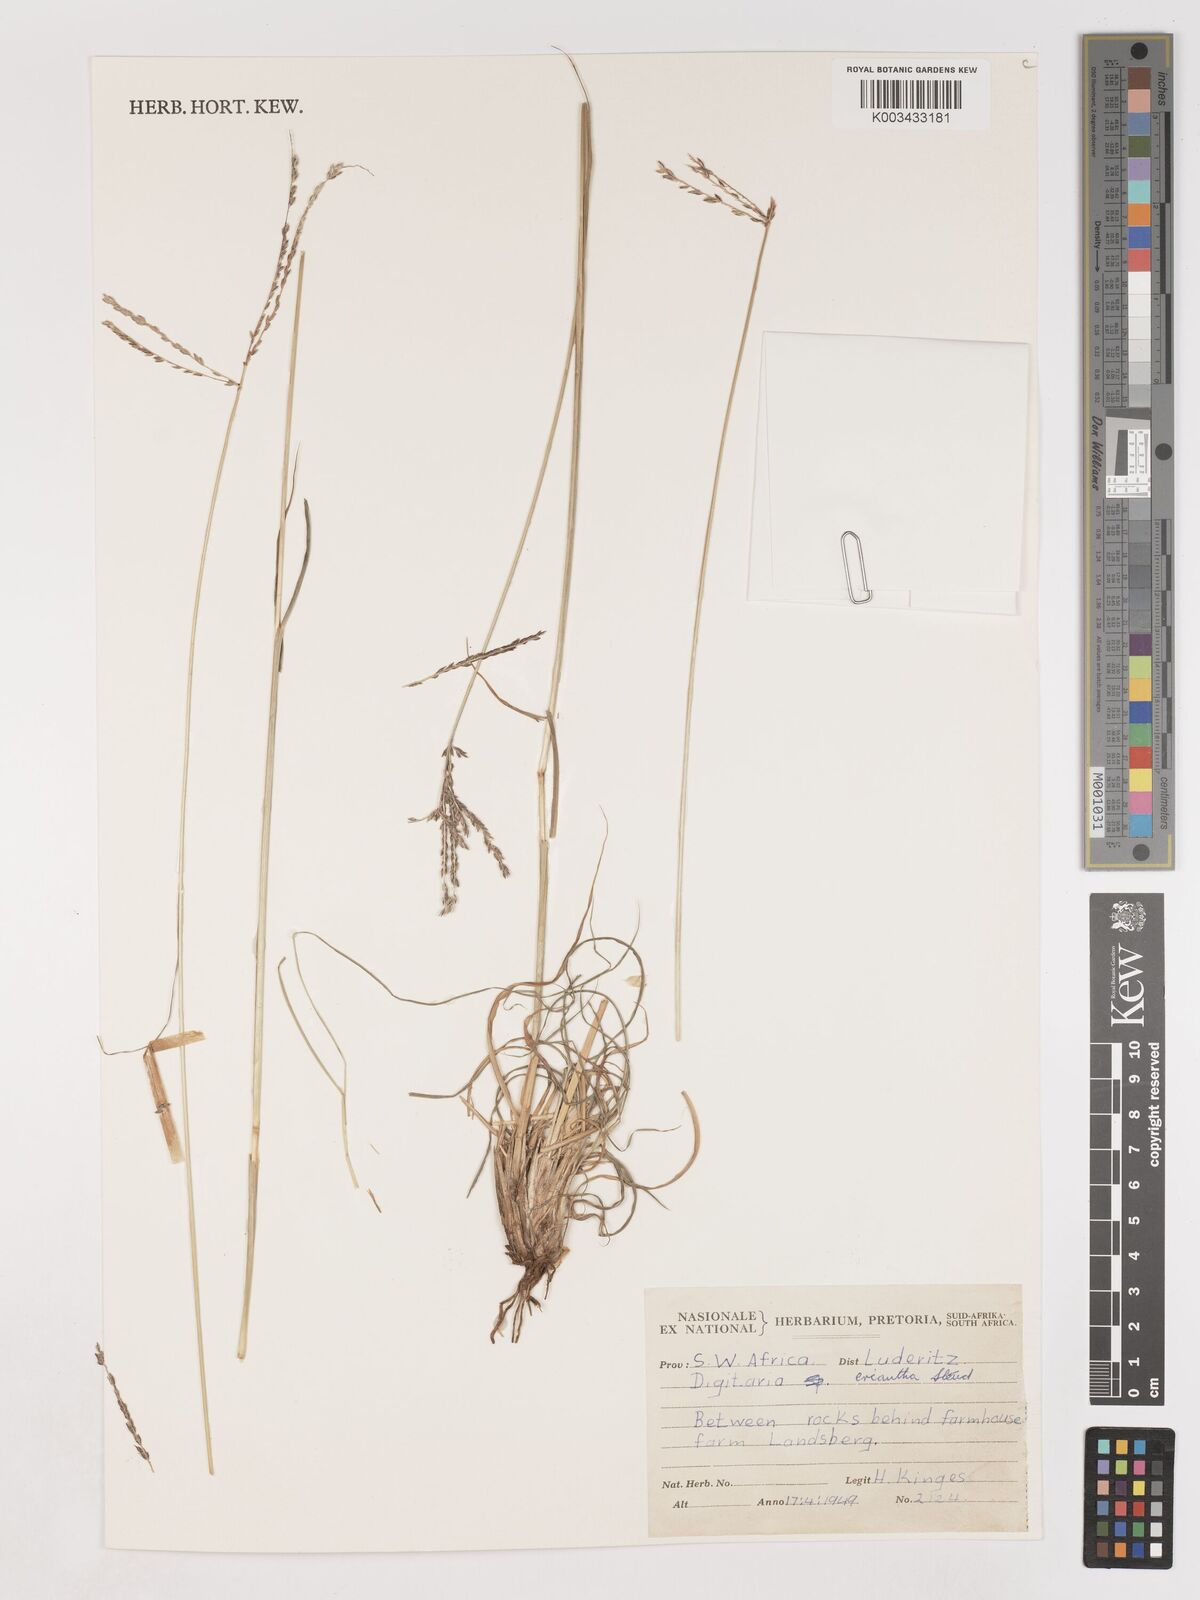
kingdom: Plantae
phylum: Tracheophyta
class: Liliopsida
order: Poales
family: Poaceae
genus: Digitaria
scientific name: Digitaria eriantha
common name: Digitgrass
